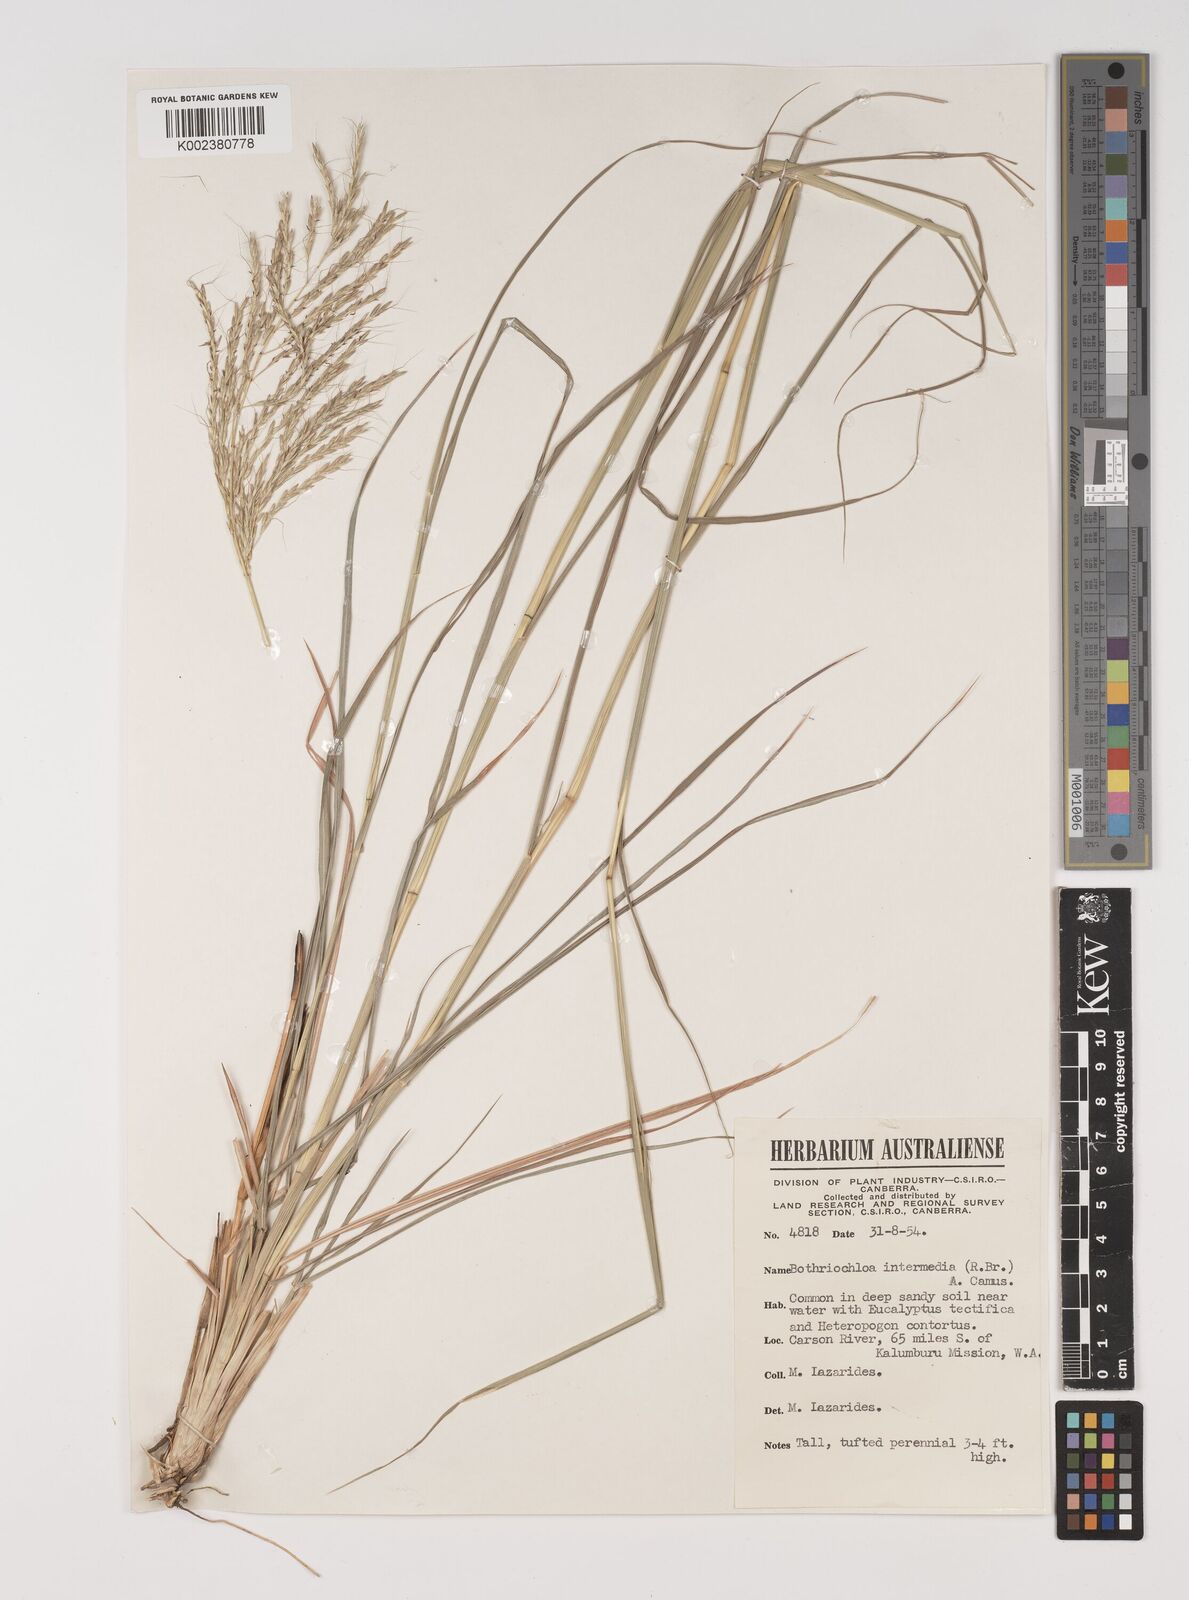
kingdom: Plantae
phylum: Tracheophyta
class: Liliopsida
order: Poales
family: Poaceae
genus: Bothriochloa
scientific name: Bothriochloa bladhii
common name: Caucasian bluestem
